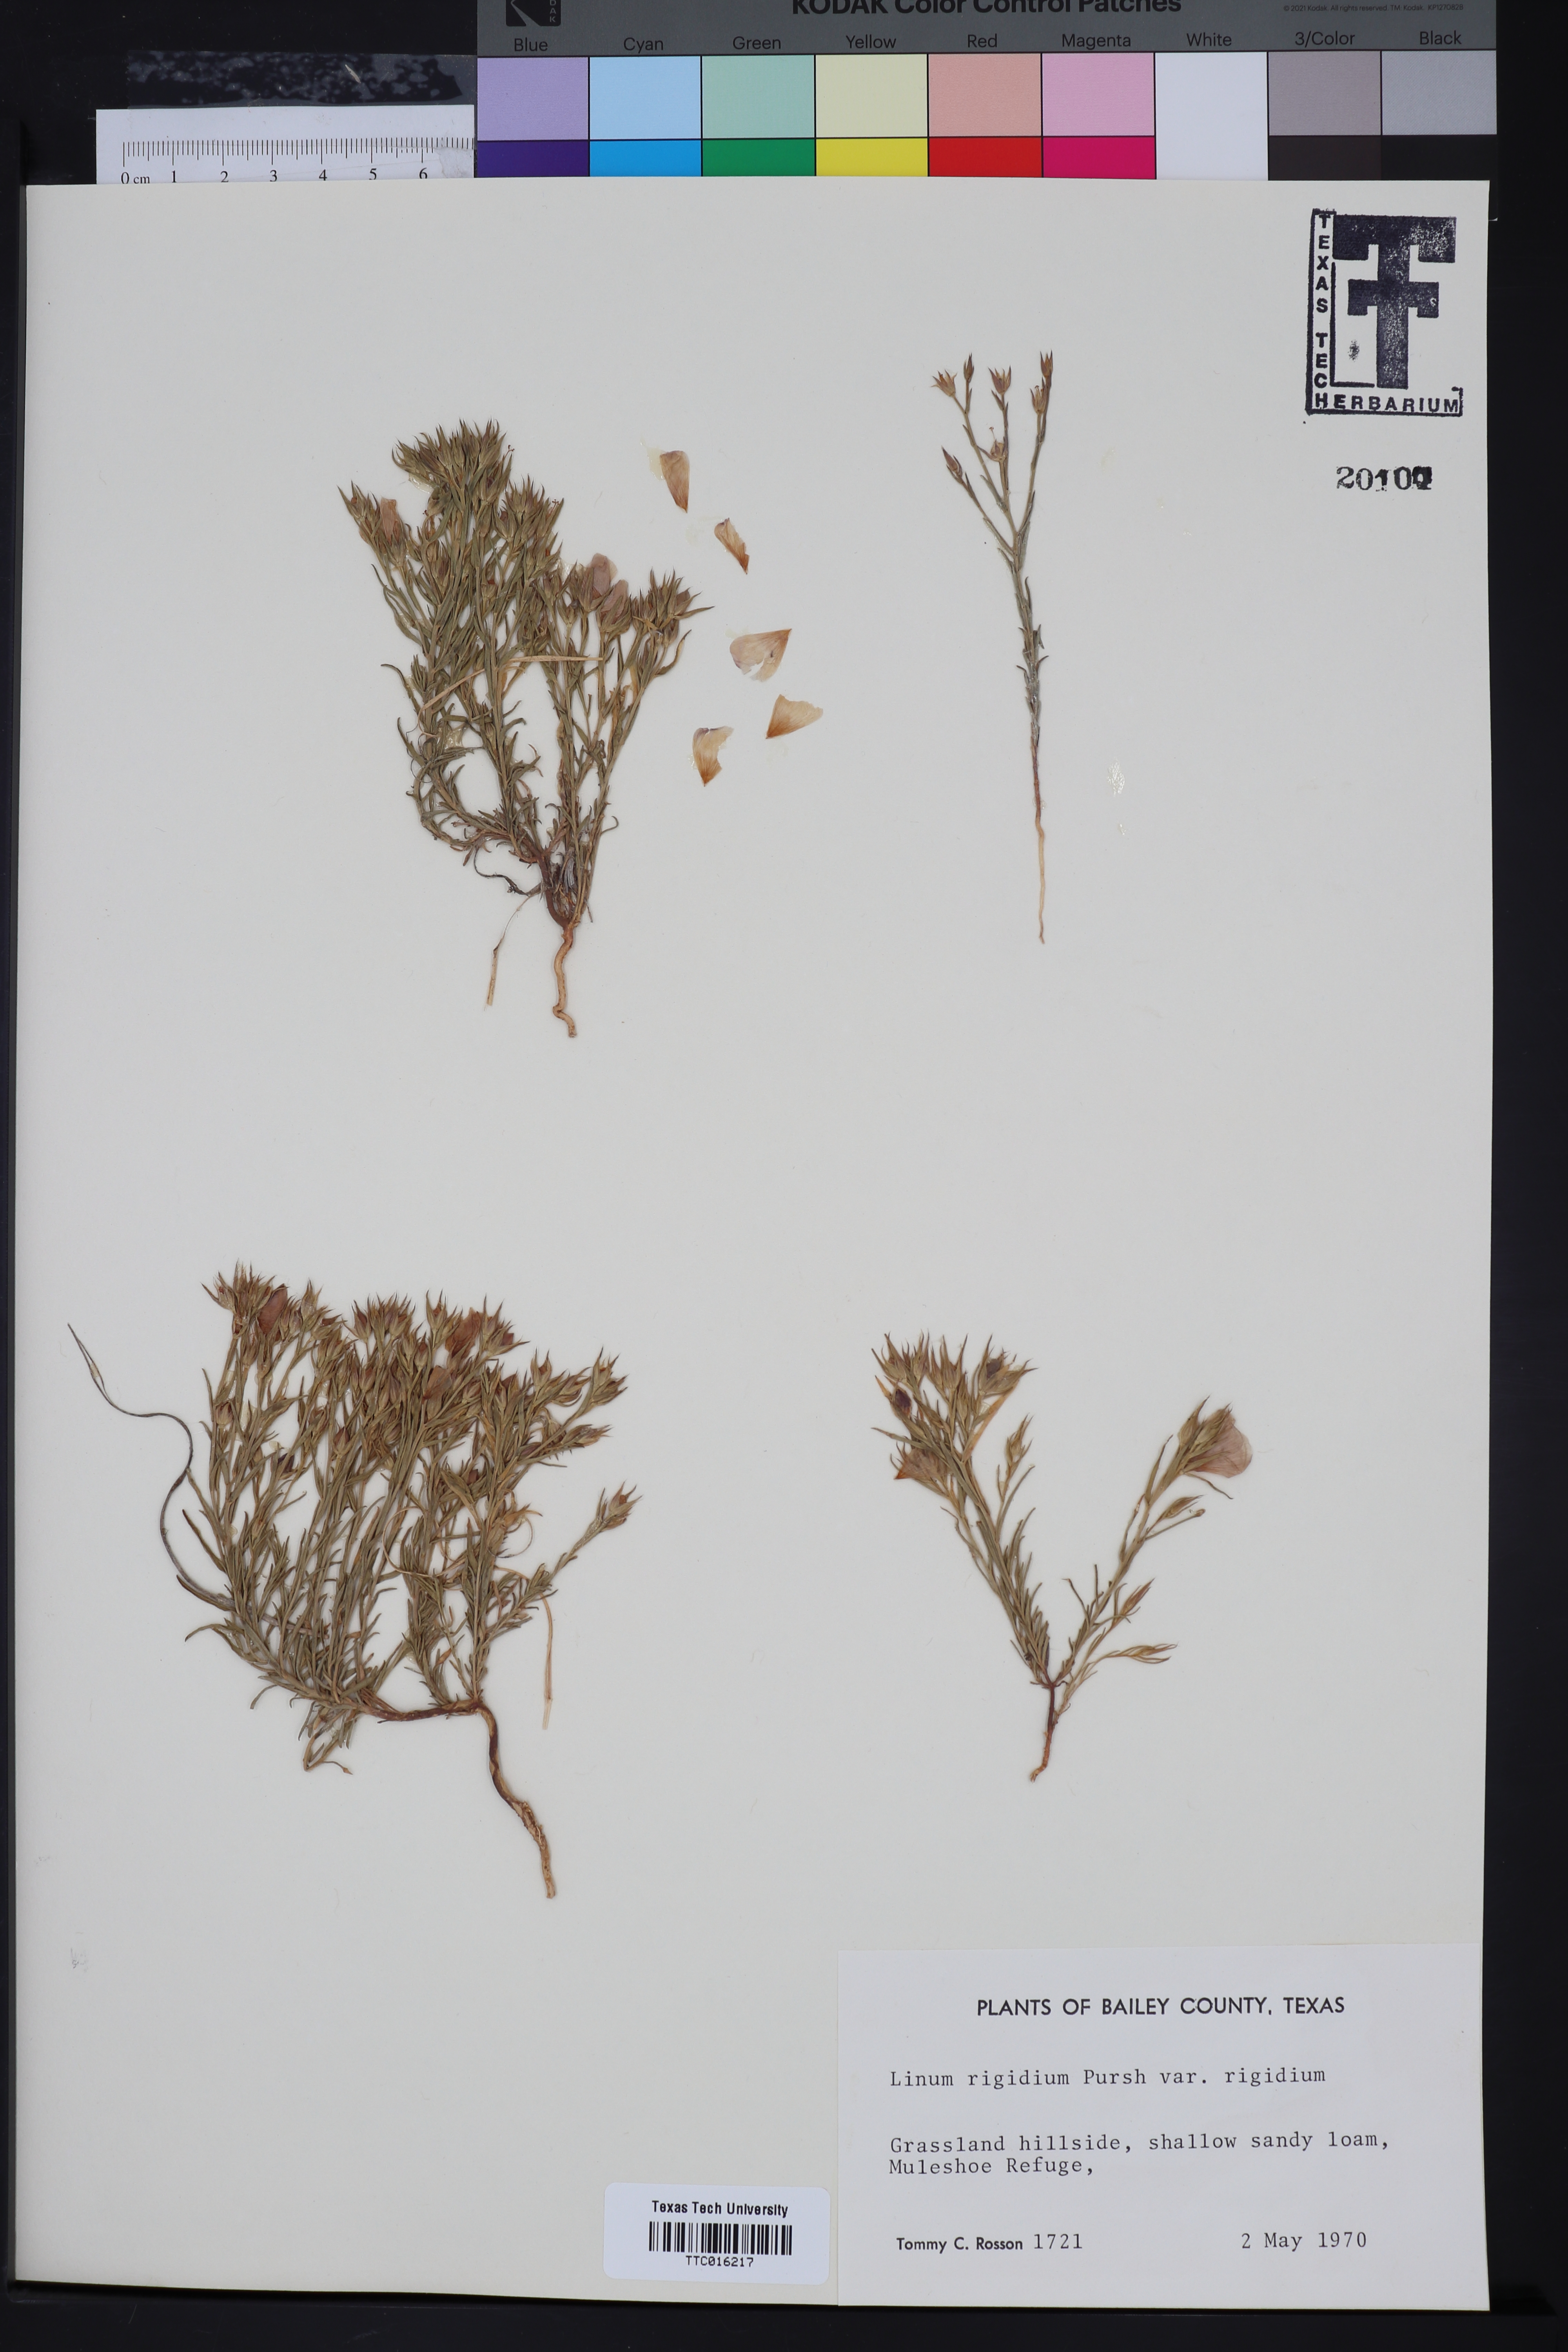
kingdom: Plantae
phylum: Tracheophyta
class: Magnoliopsida
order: Malpighiales
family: Linaceae
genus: Linum
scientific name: Linum rigidum
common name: Stiff-stem flax
